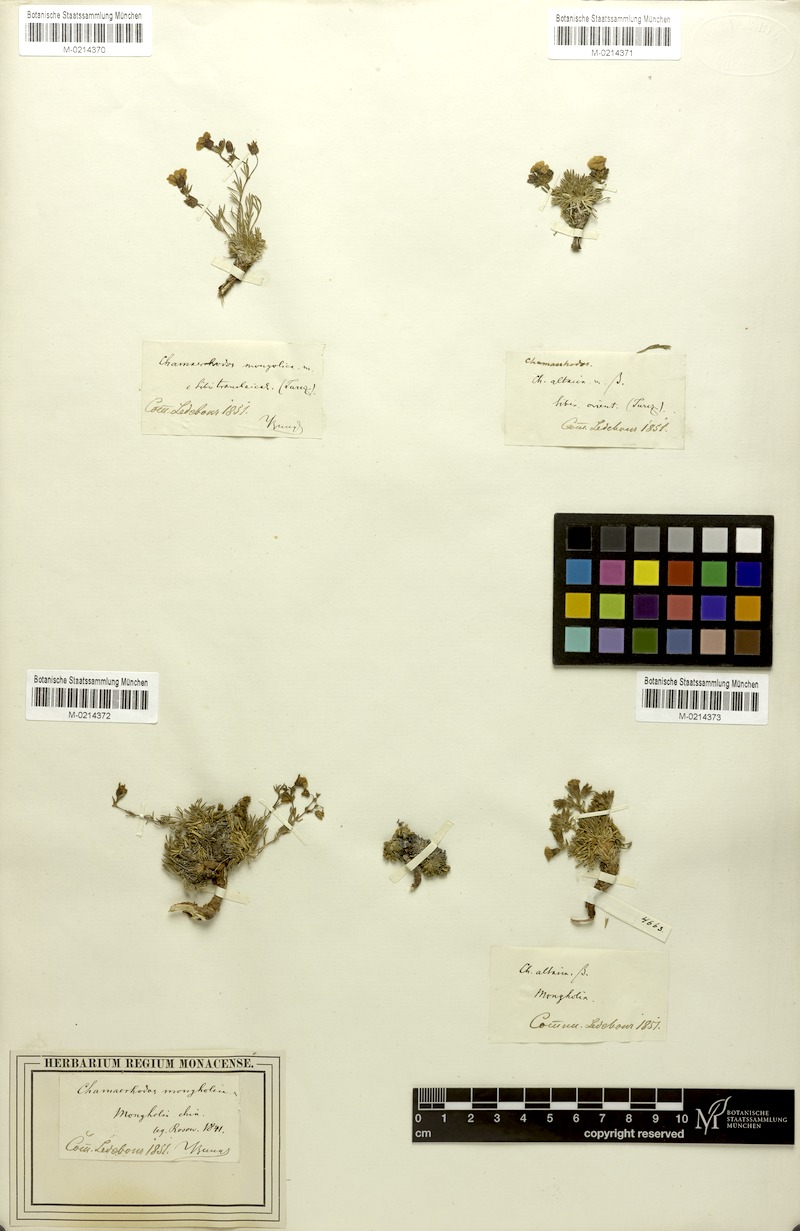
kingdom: Plantae
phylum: Tracheophyta
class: Magnoliopsida
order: Rosales
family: Rosaceae
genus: Chamaerhodos
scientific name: Chamaerhodos altaica
